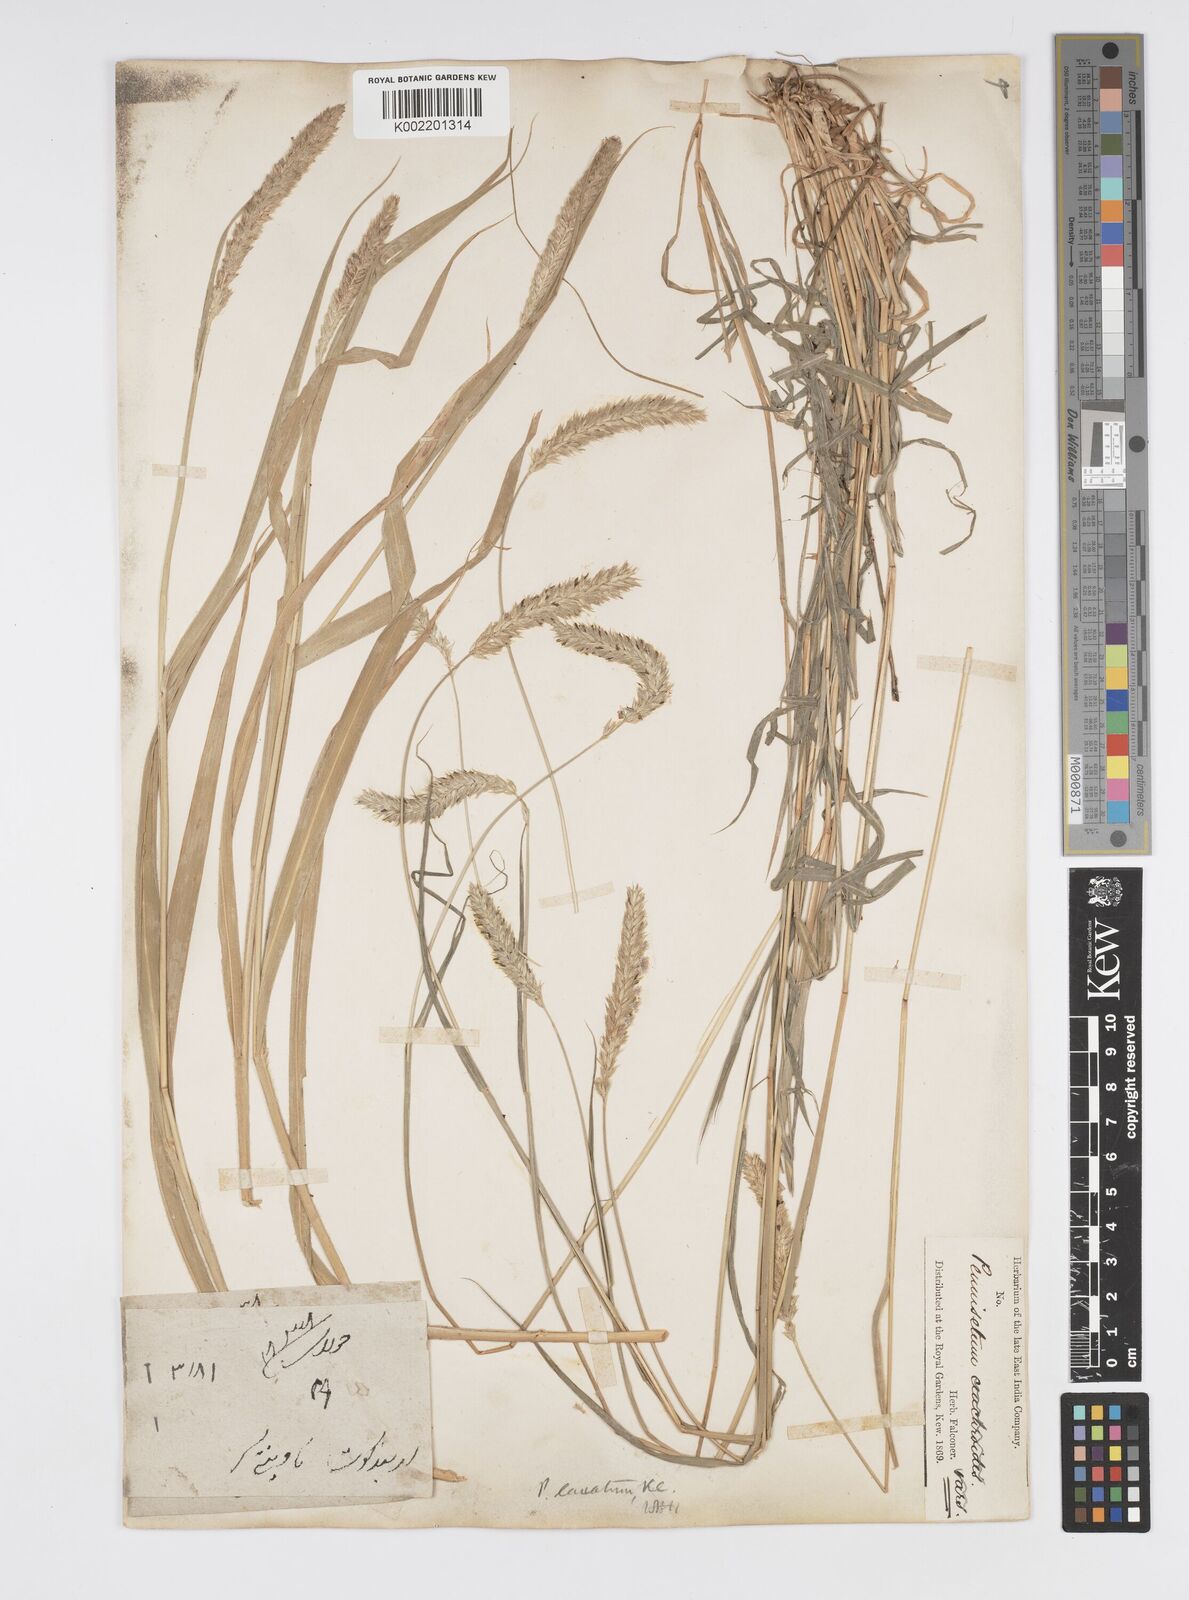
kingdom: Plantae
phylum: Tracheophyta
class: Liliopsida
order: Poales
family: Poaceae
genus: Cenchrus
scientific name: Cenchrus lanatus
